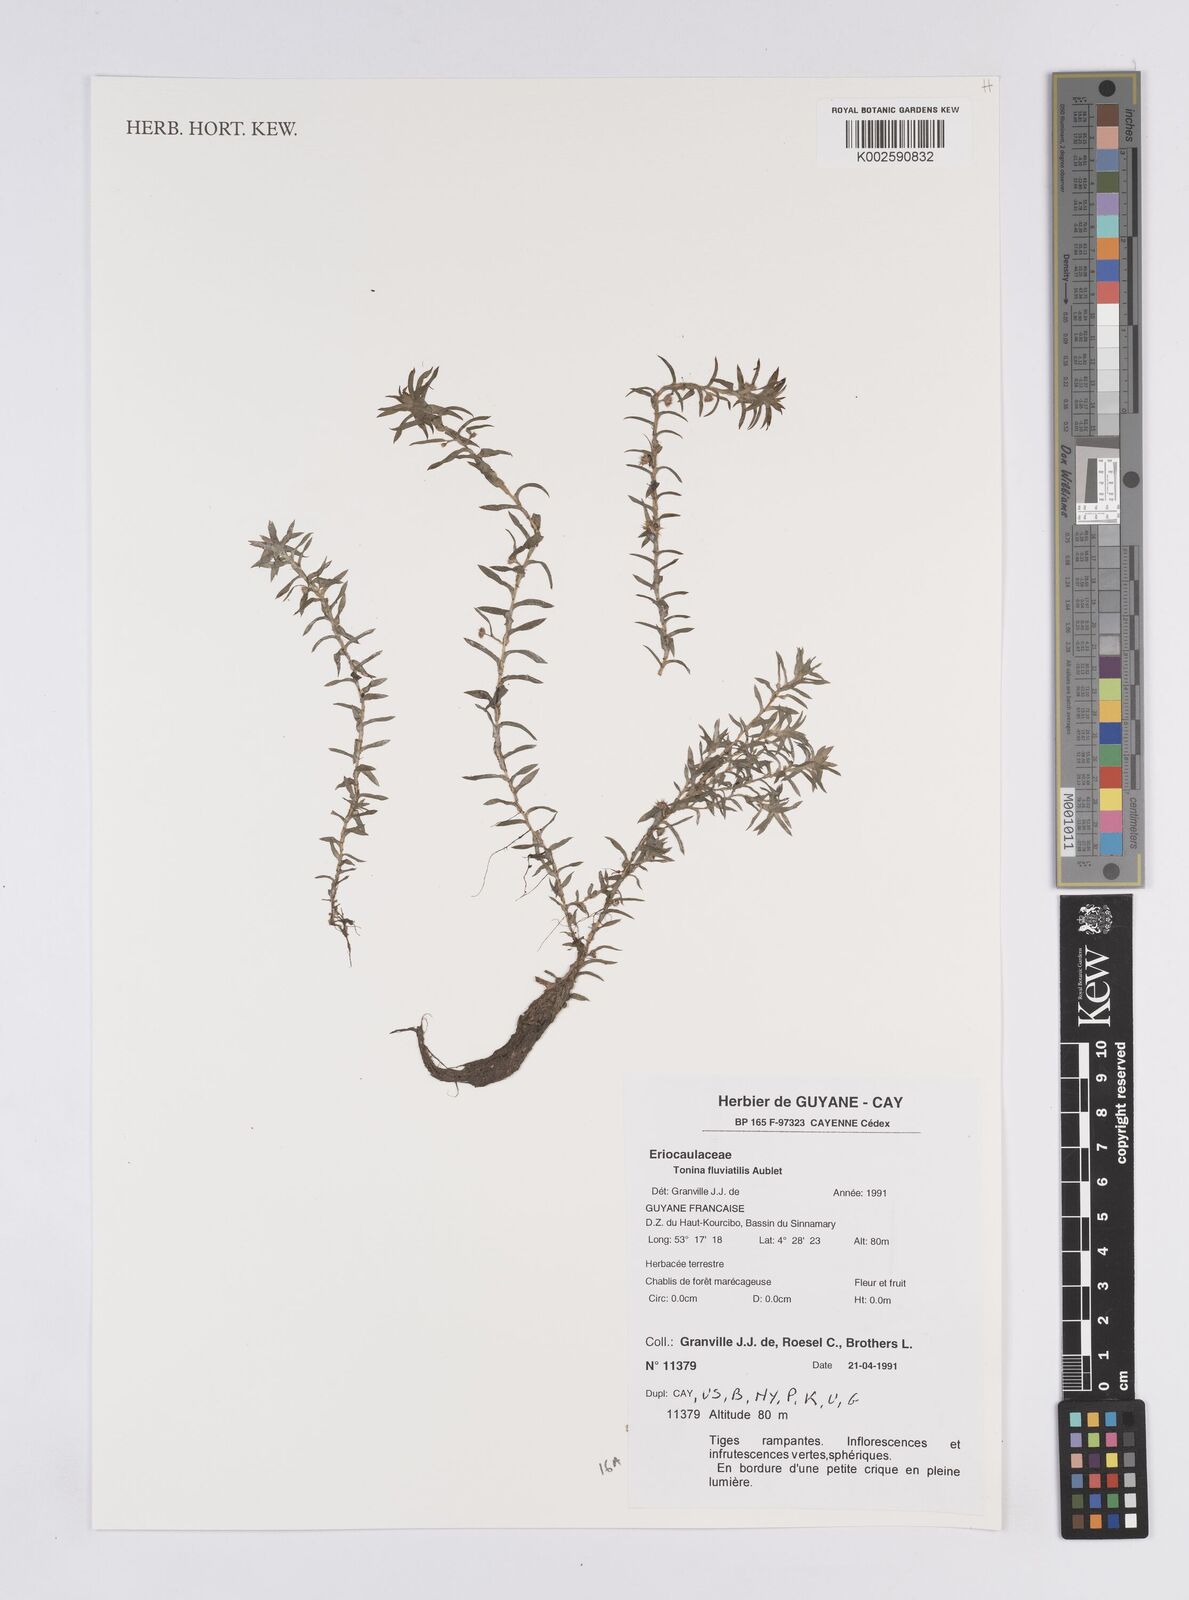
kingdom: Plantae
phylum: Tracheophyta
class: Liliopsida
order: Poales
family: Eriocaulaceae
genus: Paepalanthus
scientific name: Paepalanthus fluviatilis
